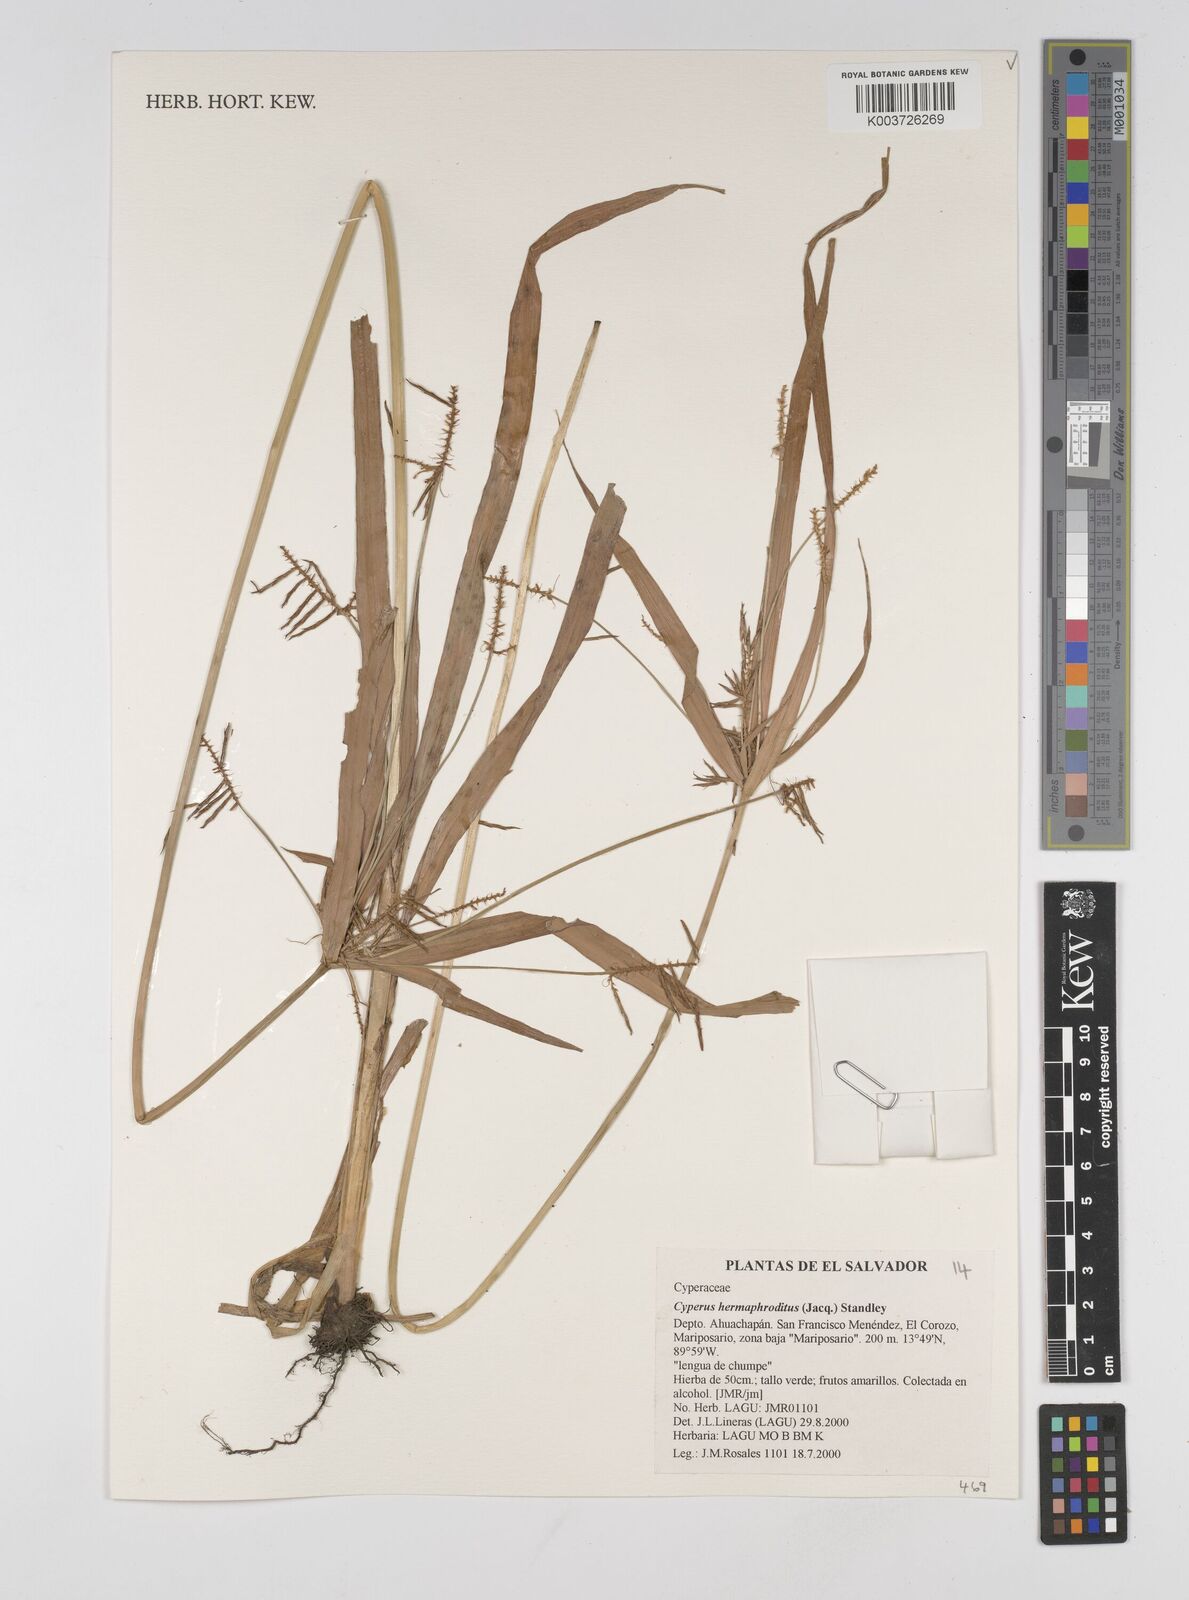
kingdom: Plantae
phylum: Tracheophyta
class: Liliopsida
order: Poales
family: Cyperaceae
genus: Cyperus
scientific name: Cyperus hermaphroditus
